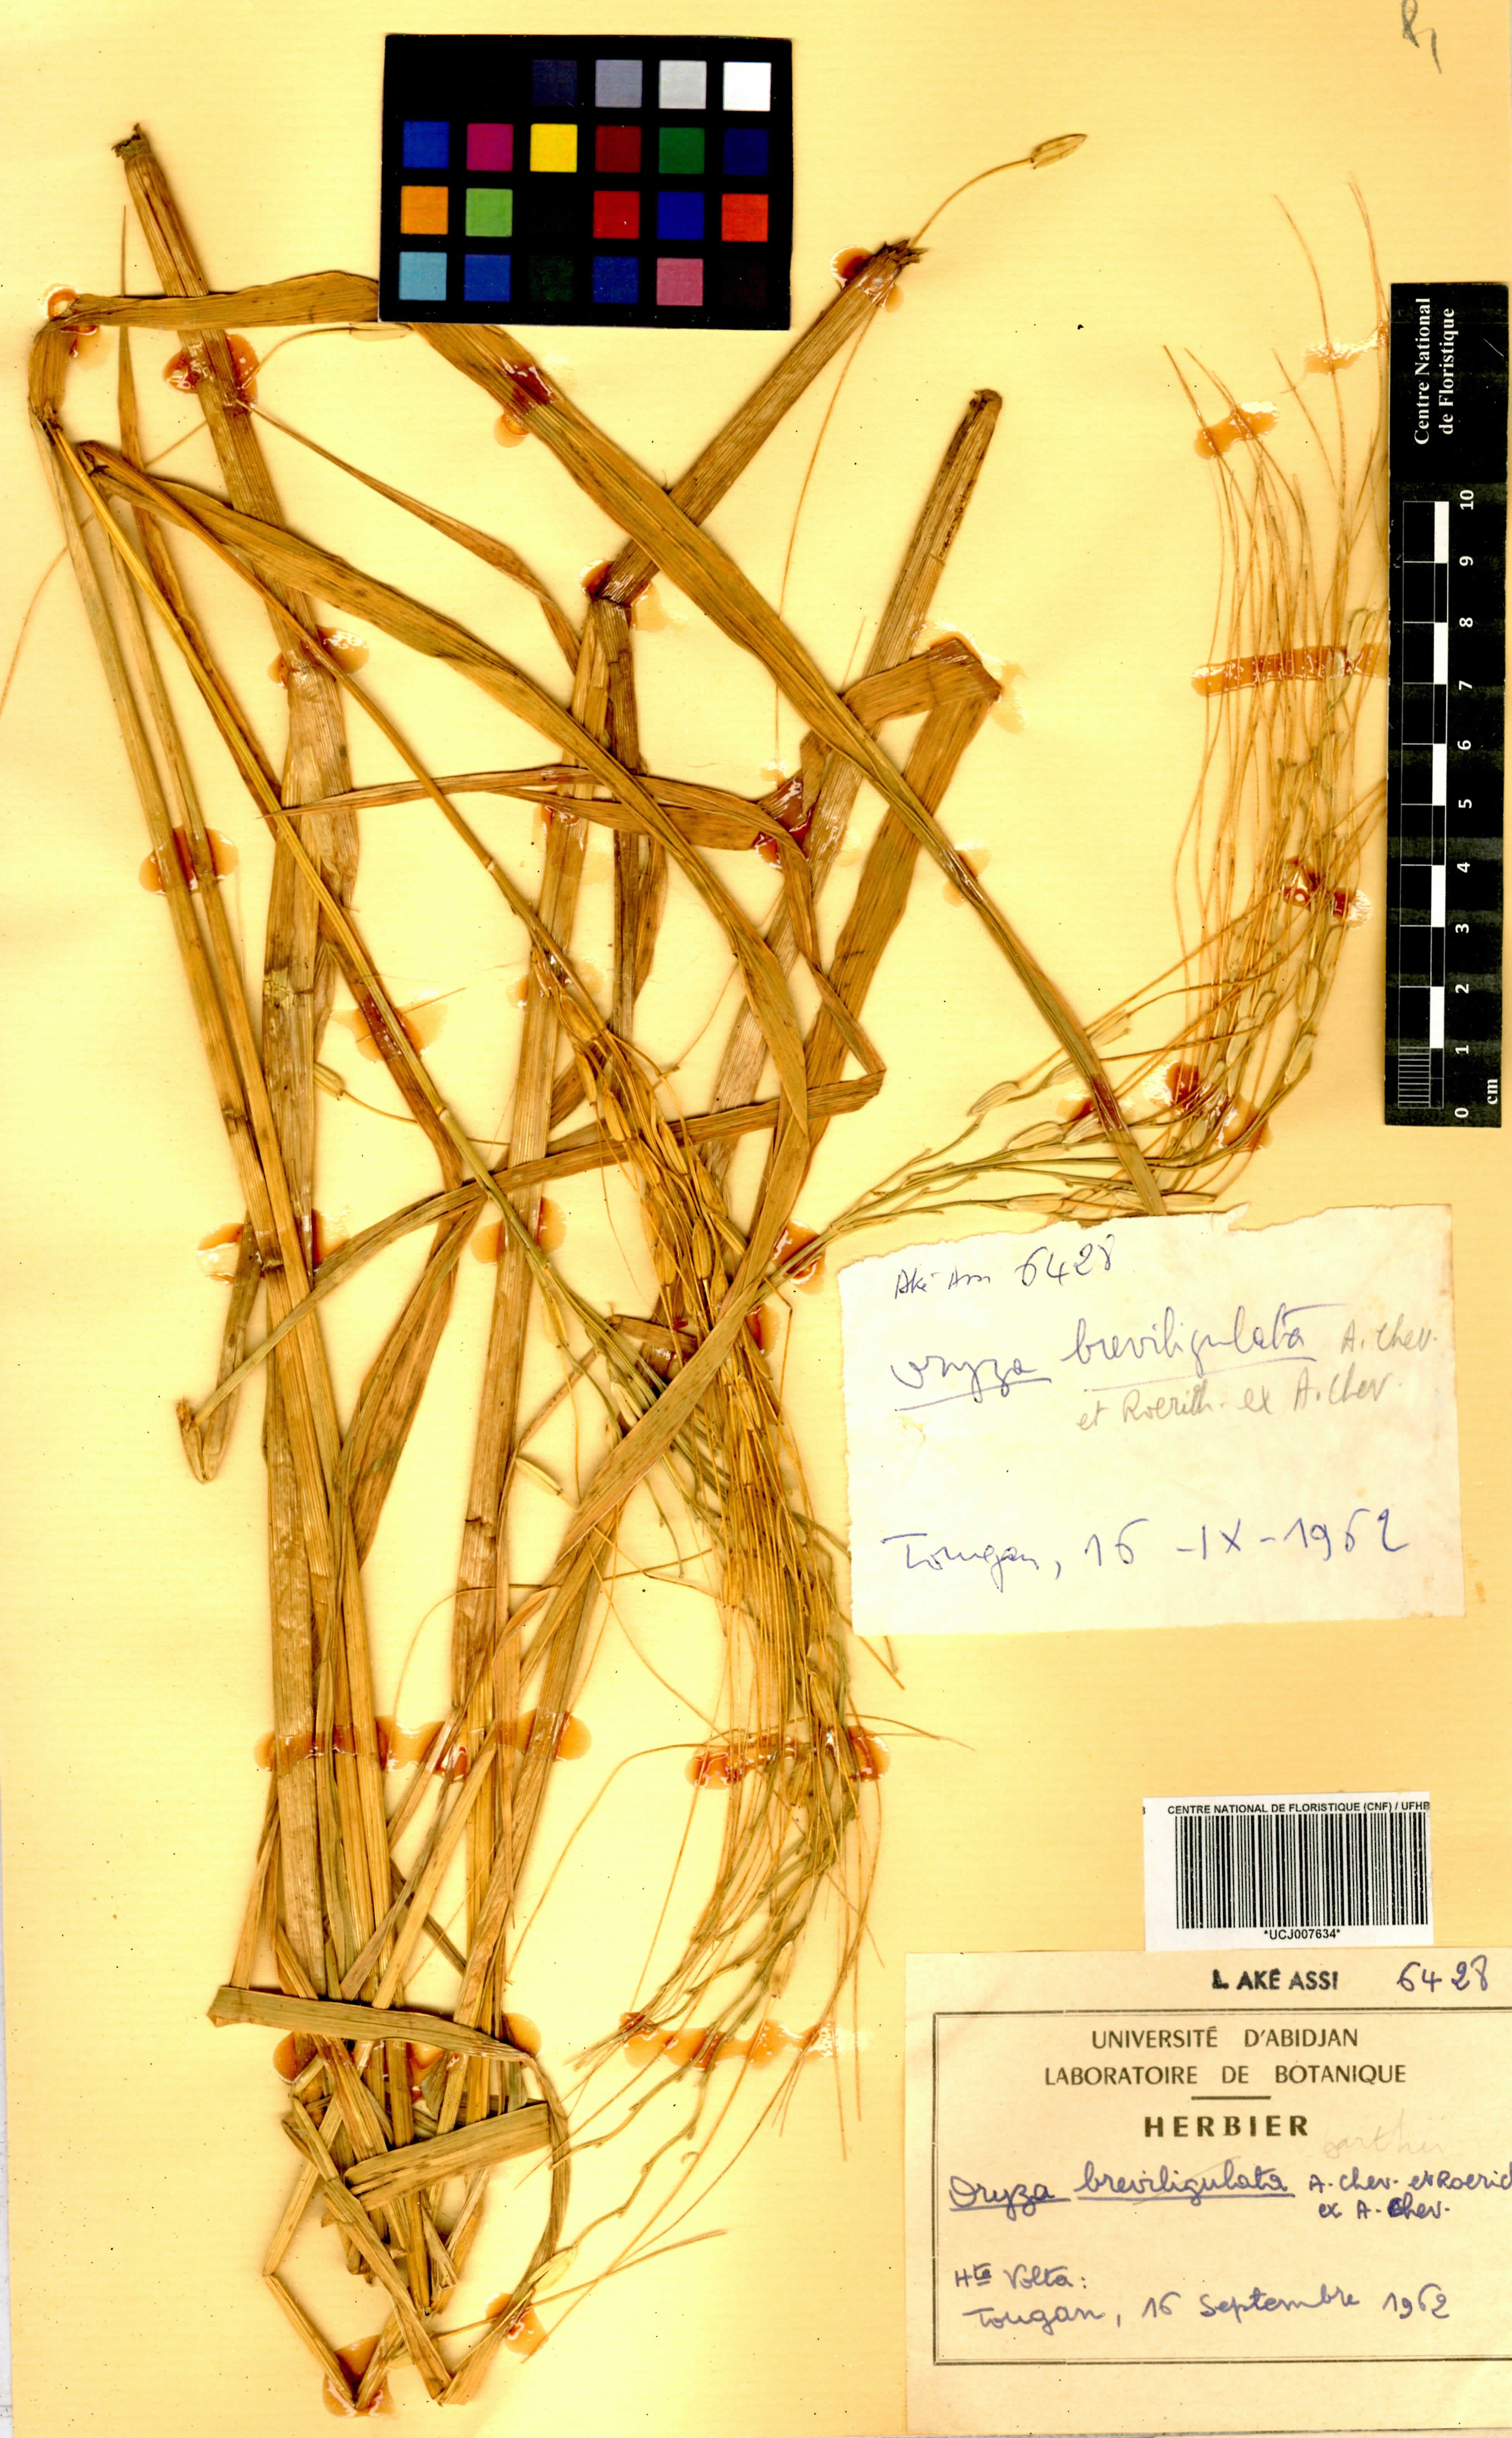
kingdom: Plantae
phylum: Tracheophyta
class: Liliopsida
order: Poales
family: Poaceae
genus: Oryza
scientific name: Oryza barthii
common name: Wild rice
